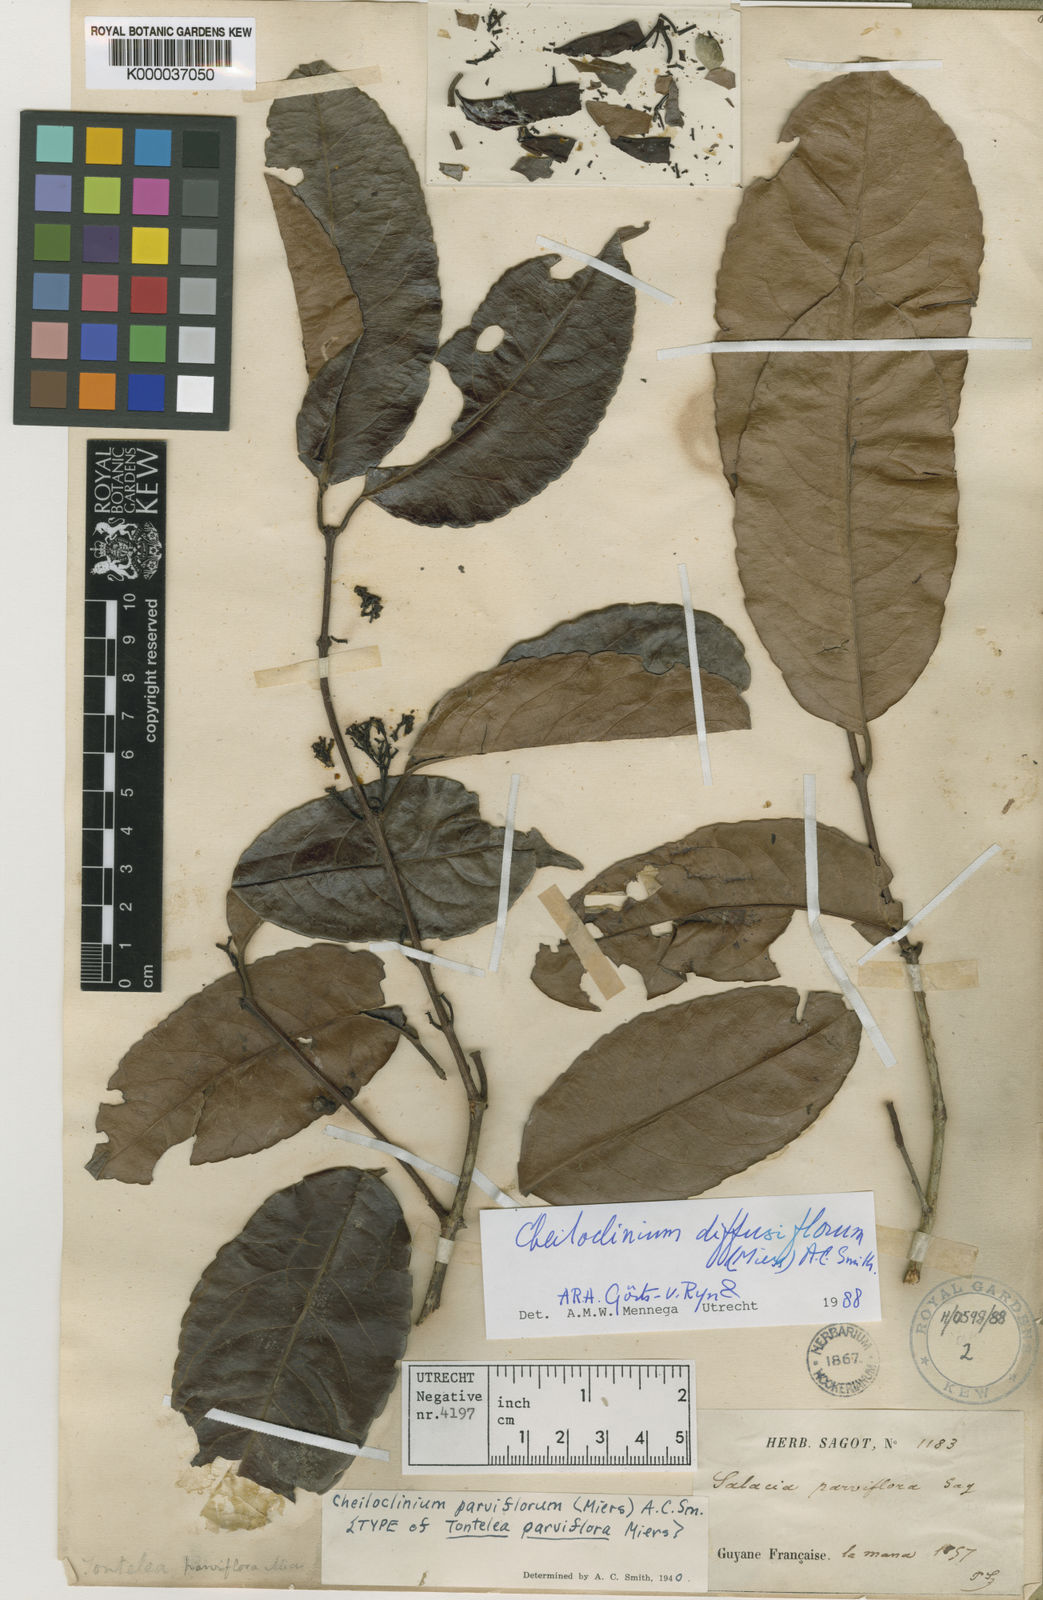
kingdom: Plantae
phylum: Tracheophyta
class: Magnoliopsida
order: Celastrales
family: Celastraceae
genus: Cheiloclinium
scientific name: Cheiloclinium serratum
